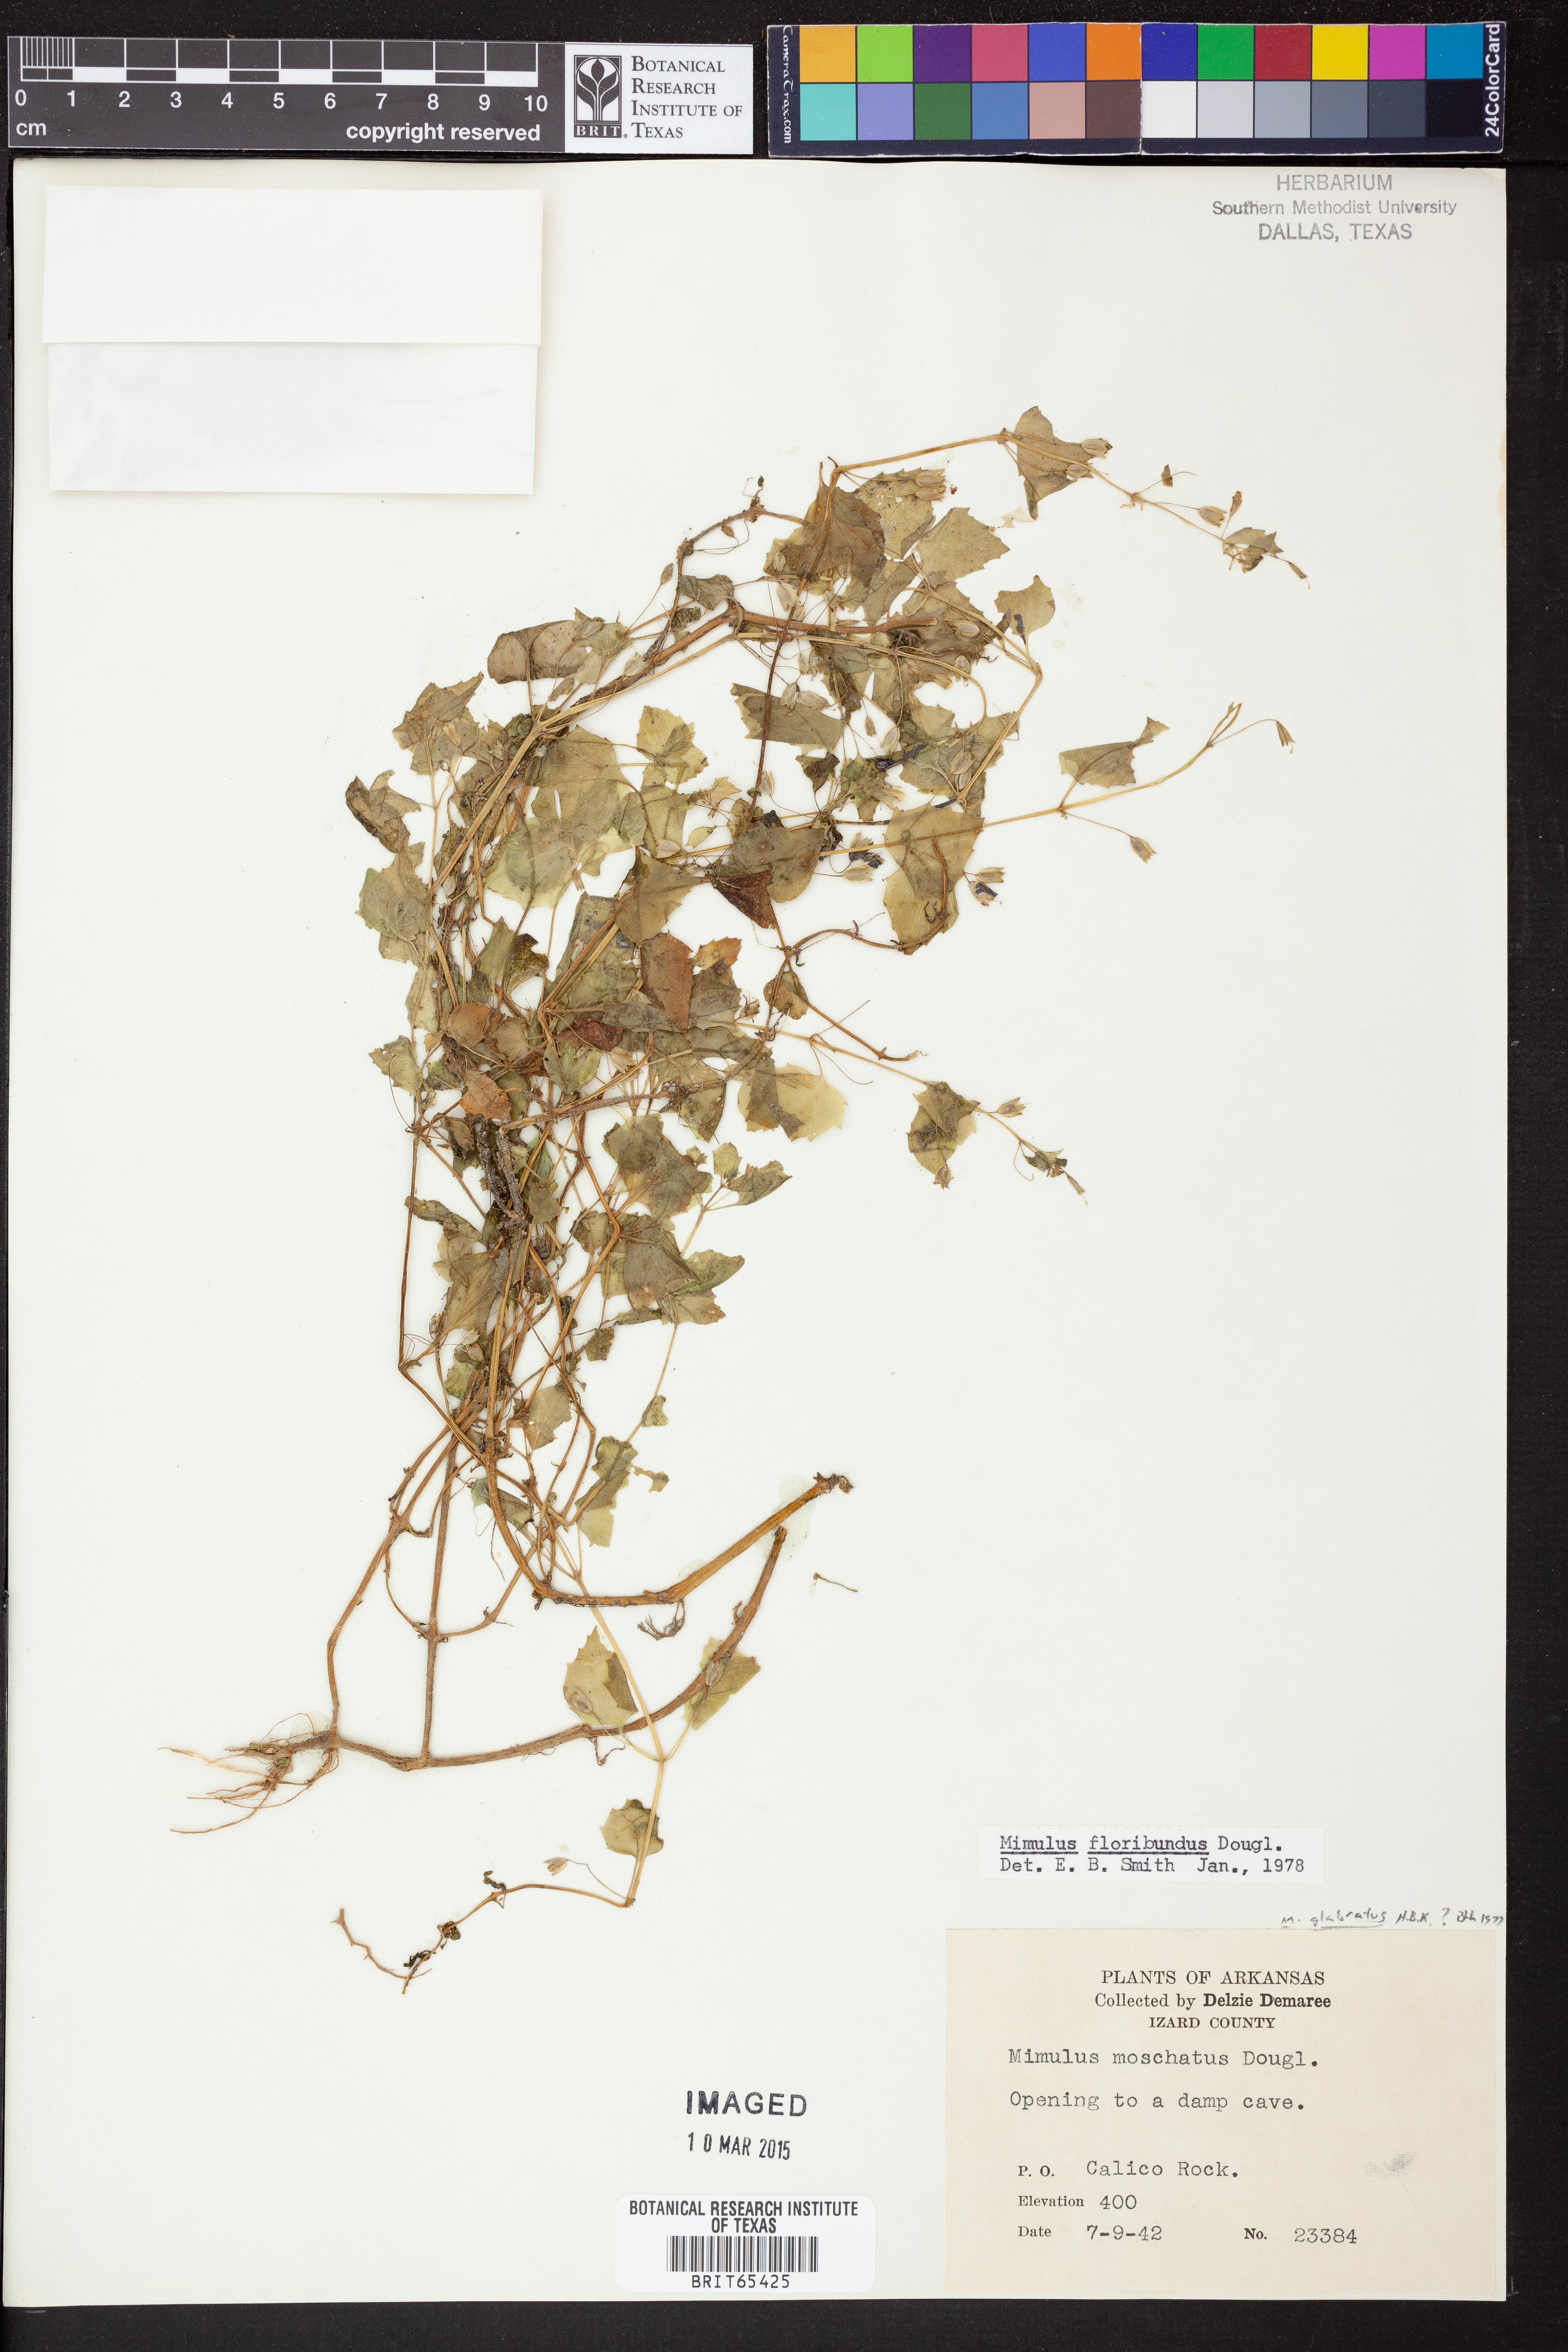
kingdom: Plantae
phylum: Tracheophyta
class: Magnoliopsida
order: Lamiales
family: Phrymaceae
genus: Erythranthe
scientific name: Erythranthe floribunda
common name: Floriferous monkeyflower
